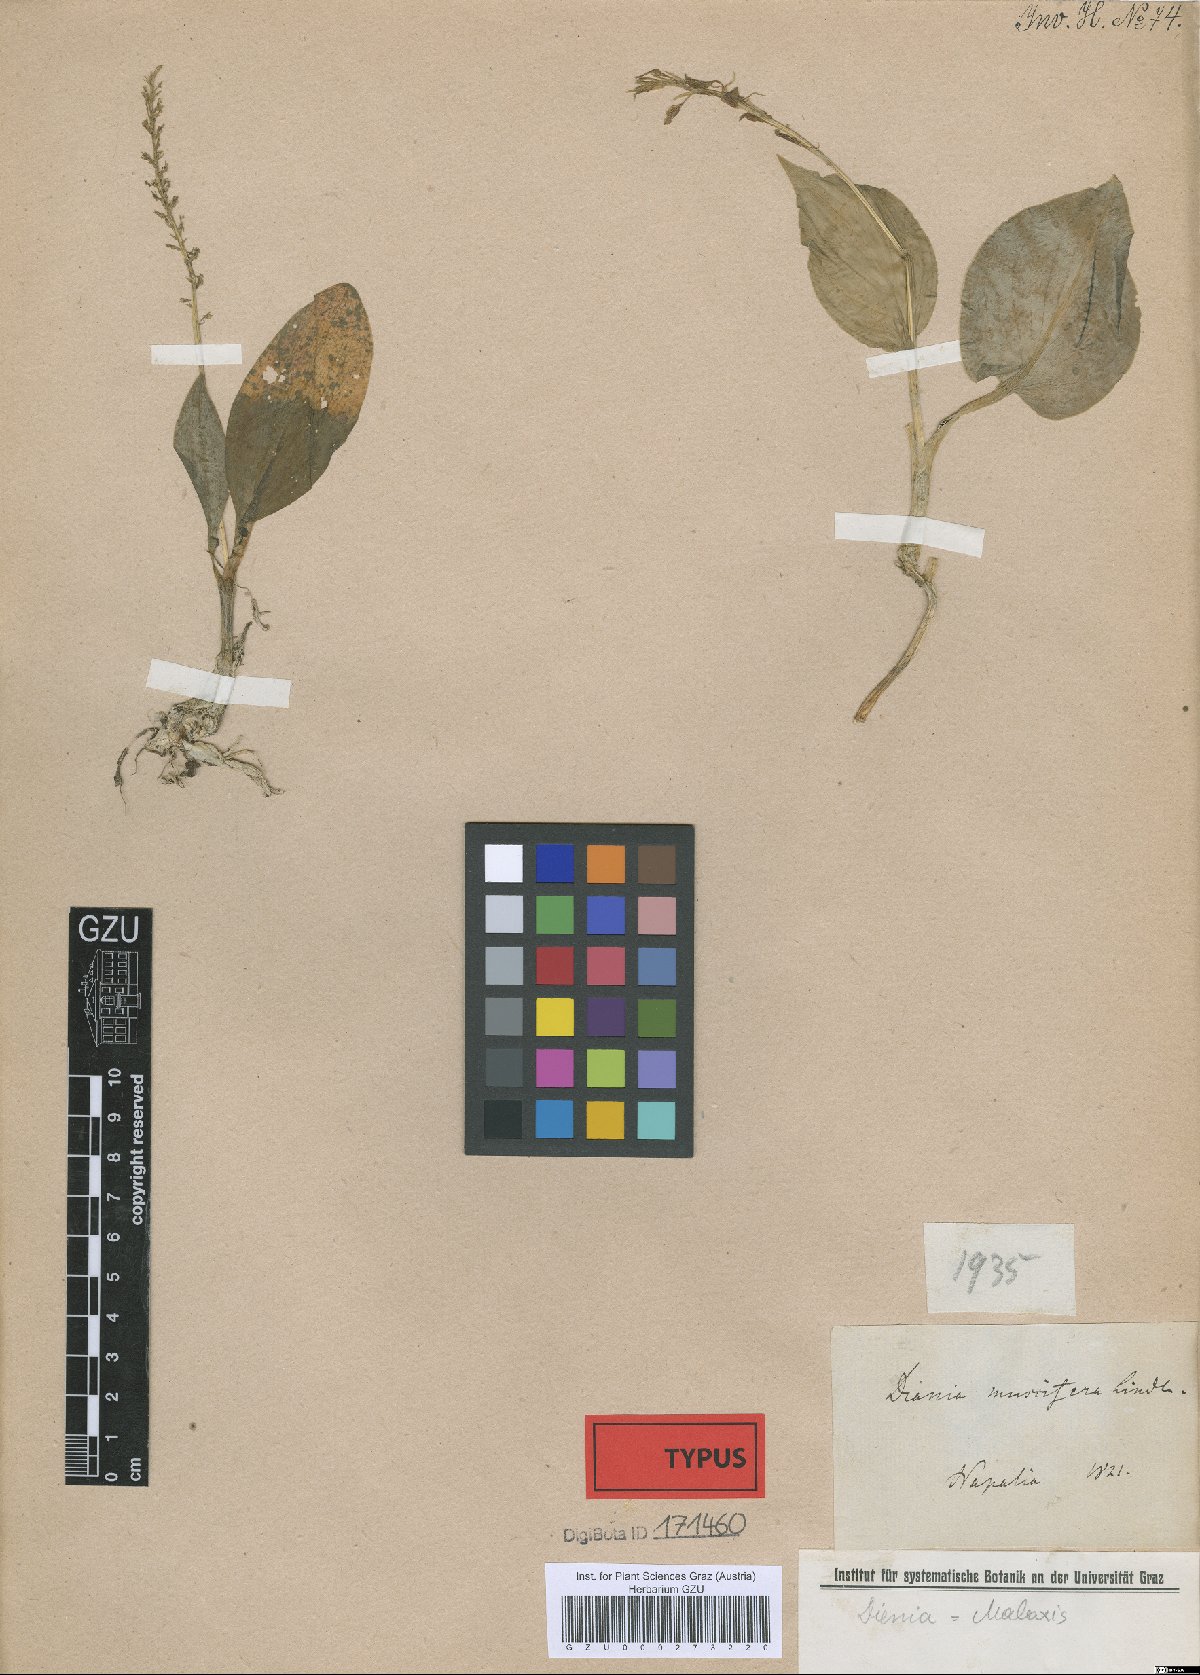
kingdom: Plantae
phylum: Tracheophyta
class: Liliopsida
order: Asparagales
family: Orchidaceae
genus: Malaxis
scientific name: Malaxis muscifera
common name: Adder-mouth orchid
